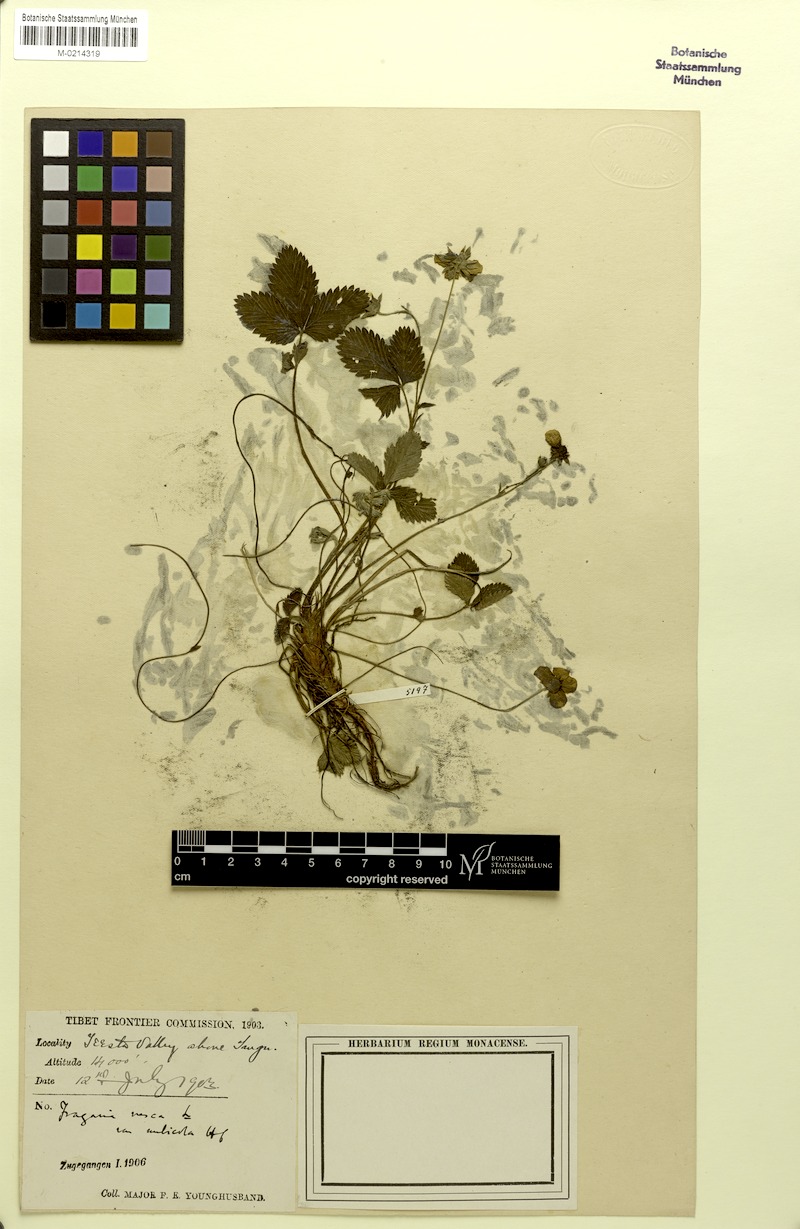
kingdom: Plantae
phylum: Tracheophyta
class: Magnoliopsida
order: Rosales
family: Rosaceae
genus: Fragaria
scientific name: Fragaria tibetica
